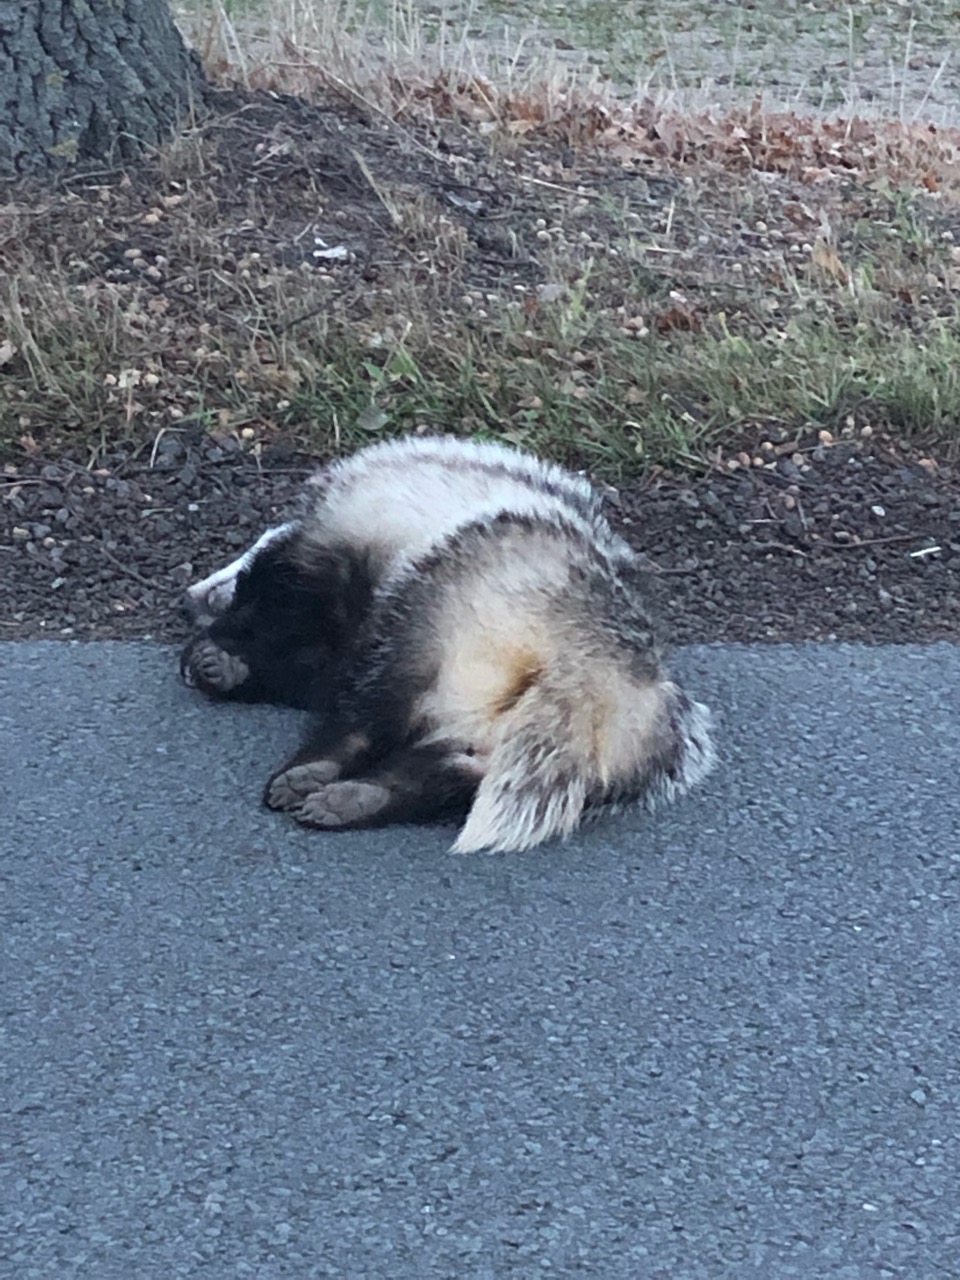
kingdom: Animalia
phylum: Chordata
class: Mammalia
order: Carnivora
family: Mustelidae
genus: Meles
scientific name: Meles meles
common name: Eurasian badger
